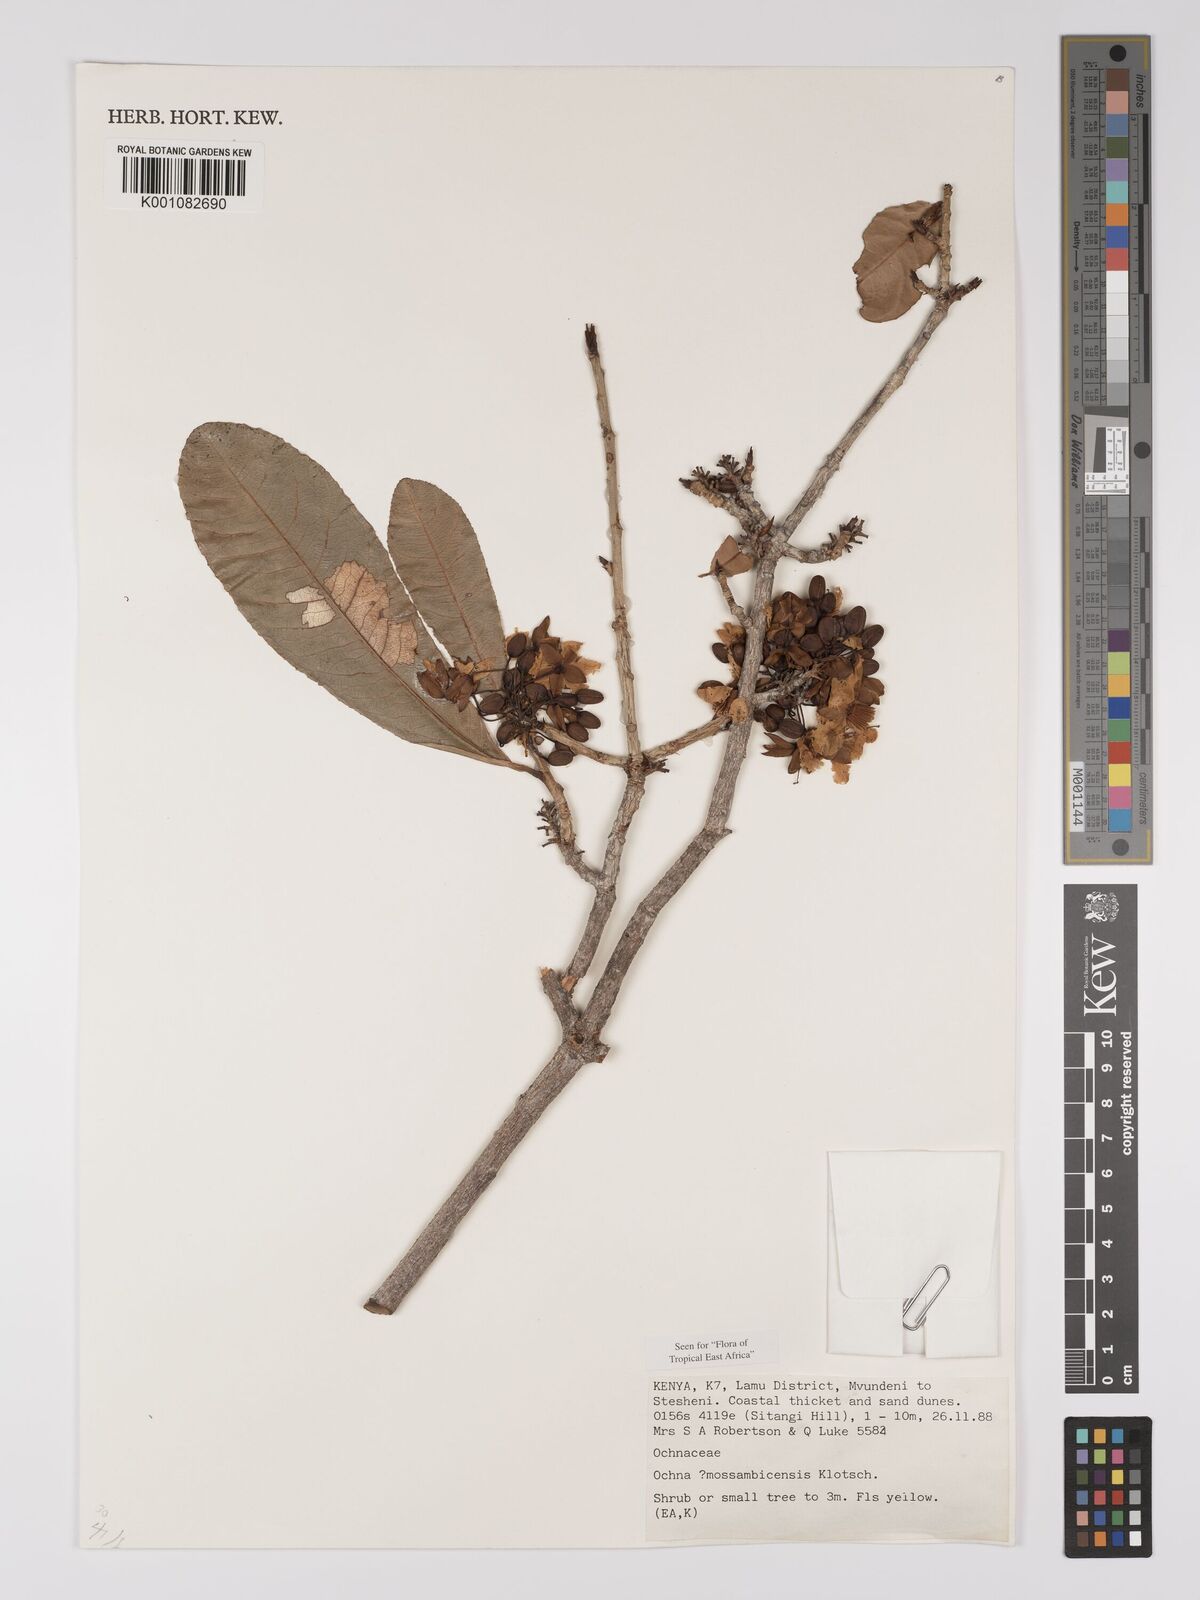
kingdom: Plantae
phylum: Tracheophyta
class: Magnoliopsida
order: Malpighiales
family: Ochnaceae
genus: Ochna
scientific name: Ochna atropurpurea
